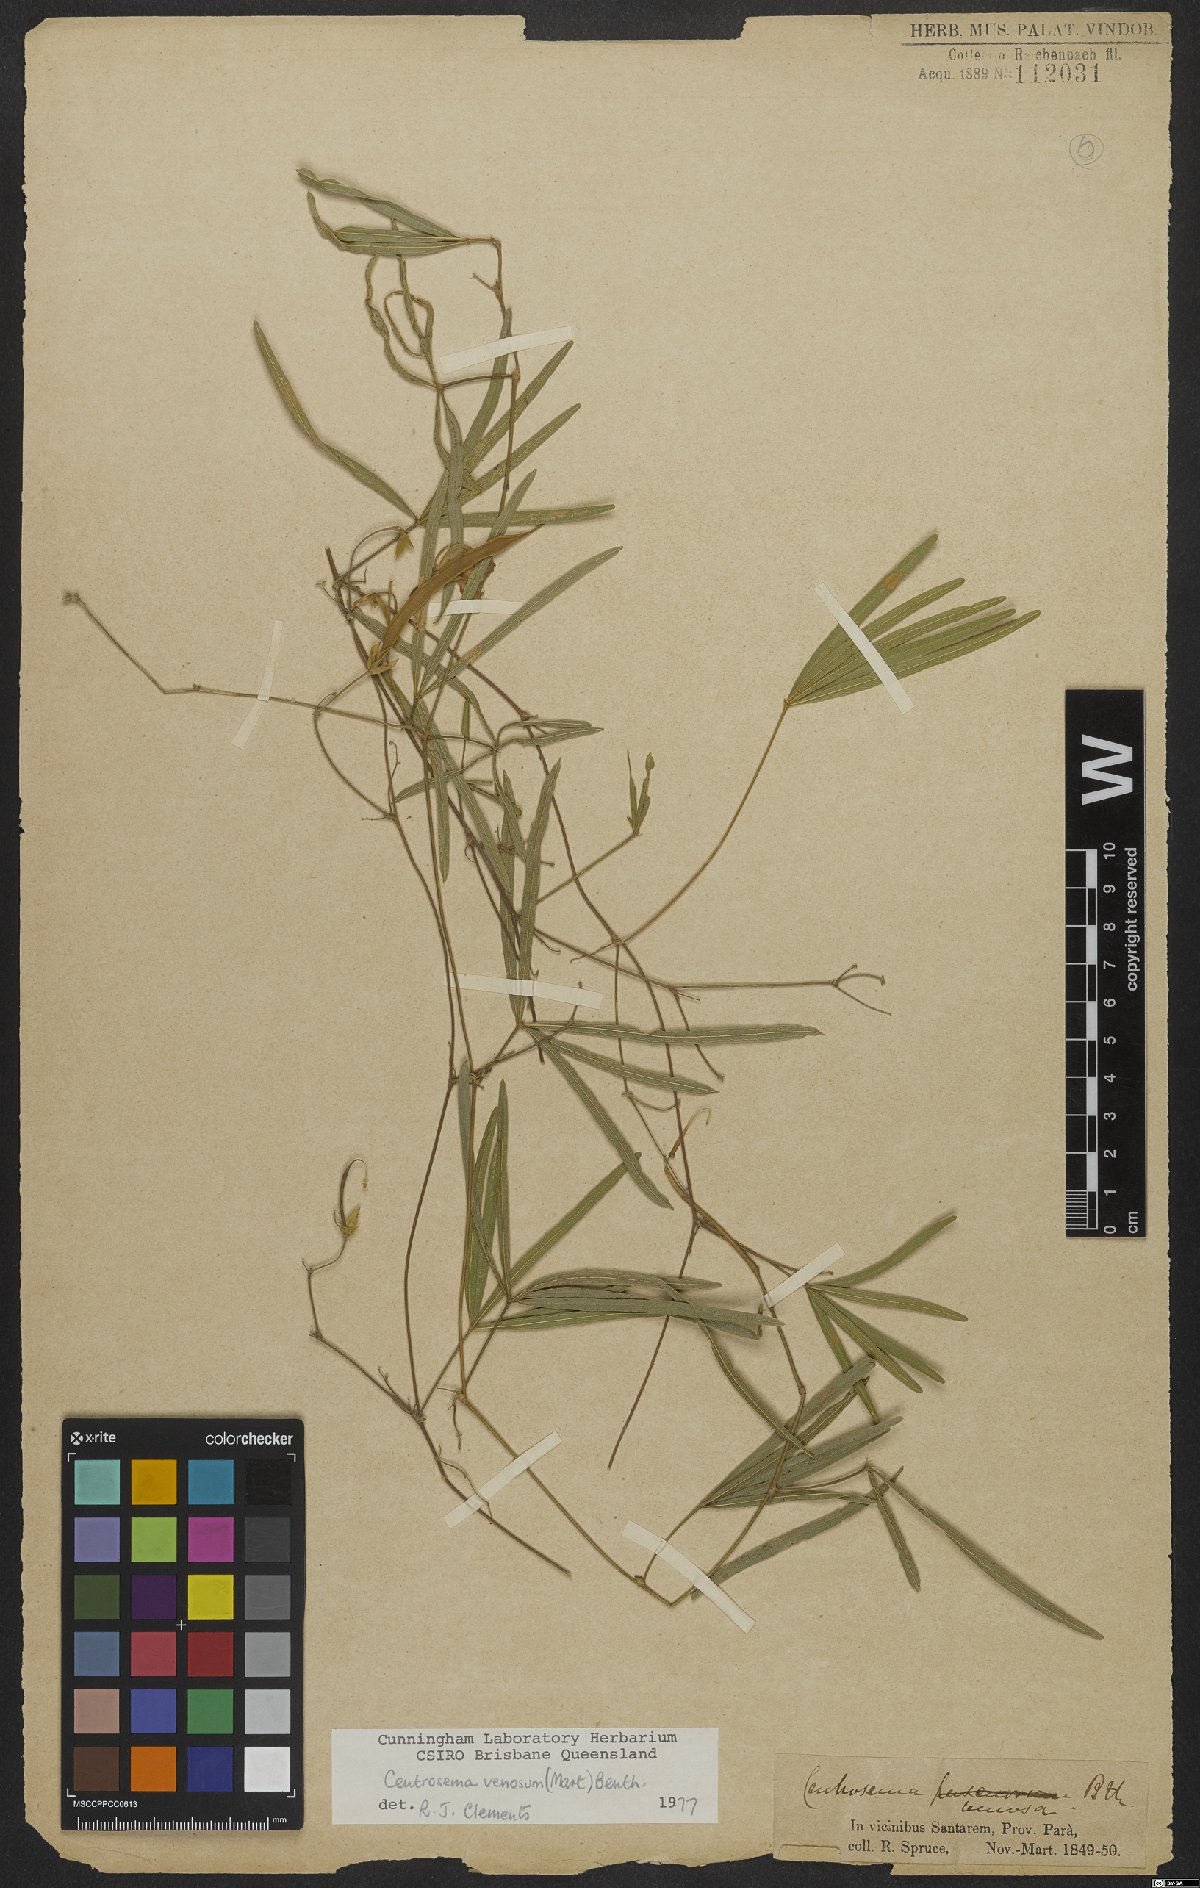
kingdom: Plantae
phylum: Tracheophyta
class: Magnoliopsida
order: Fabales
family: Fabaceae
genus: Centrosema
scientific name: Centrosema venosum
